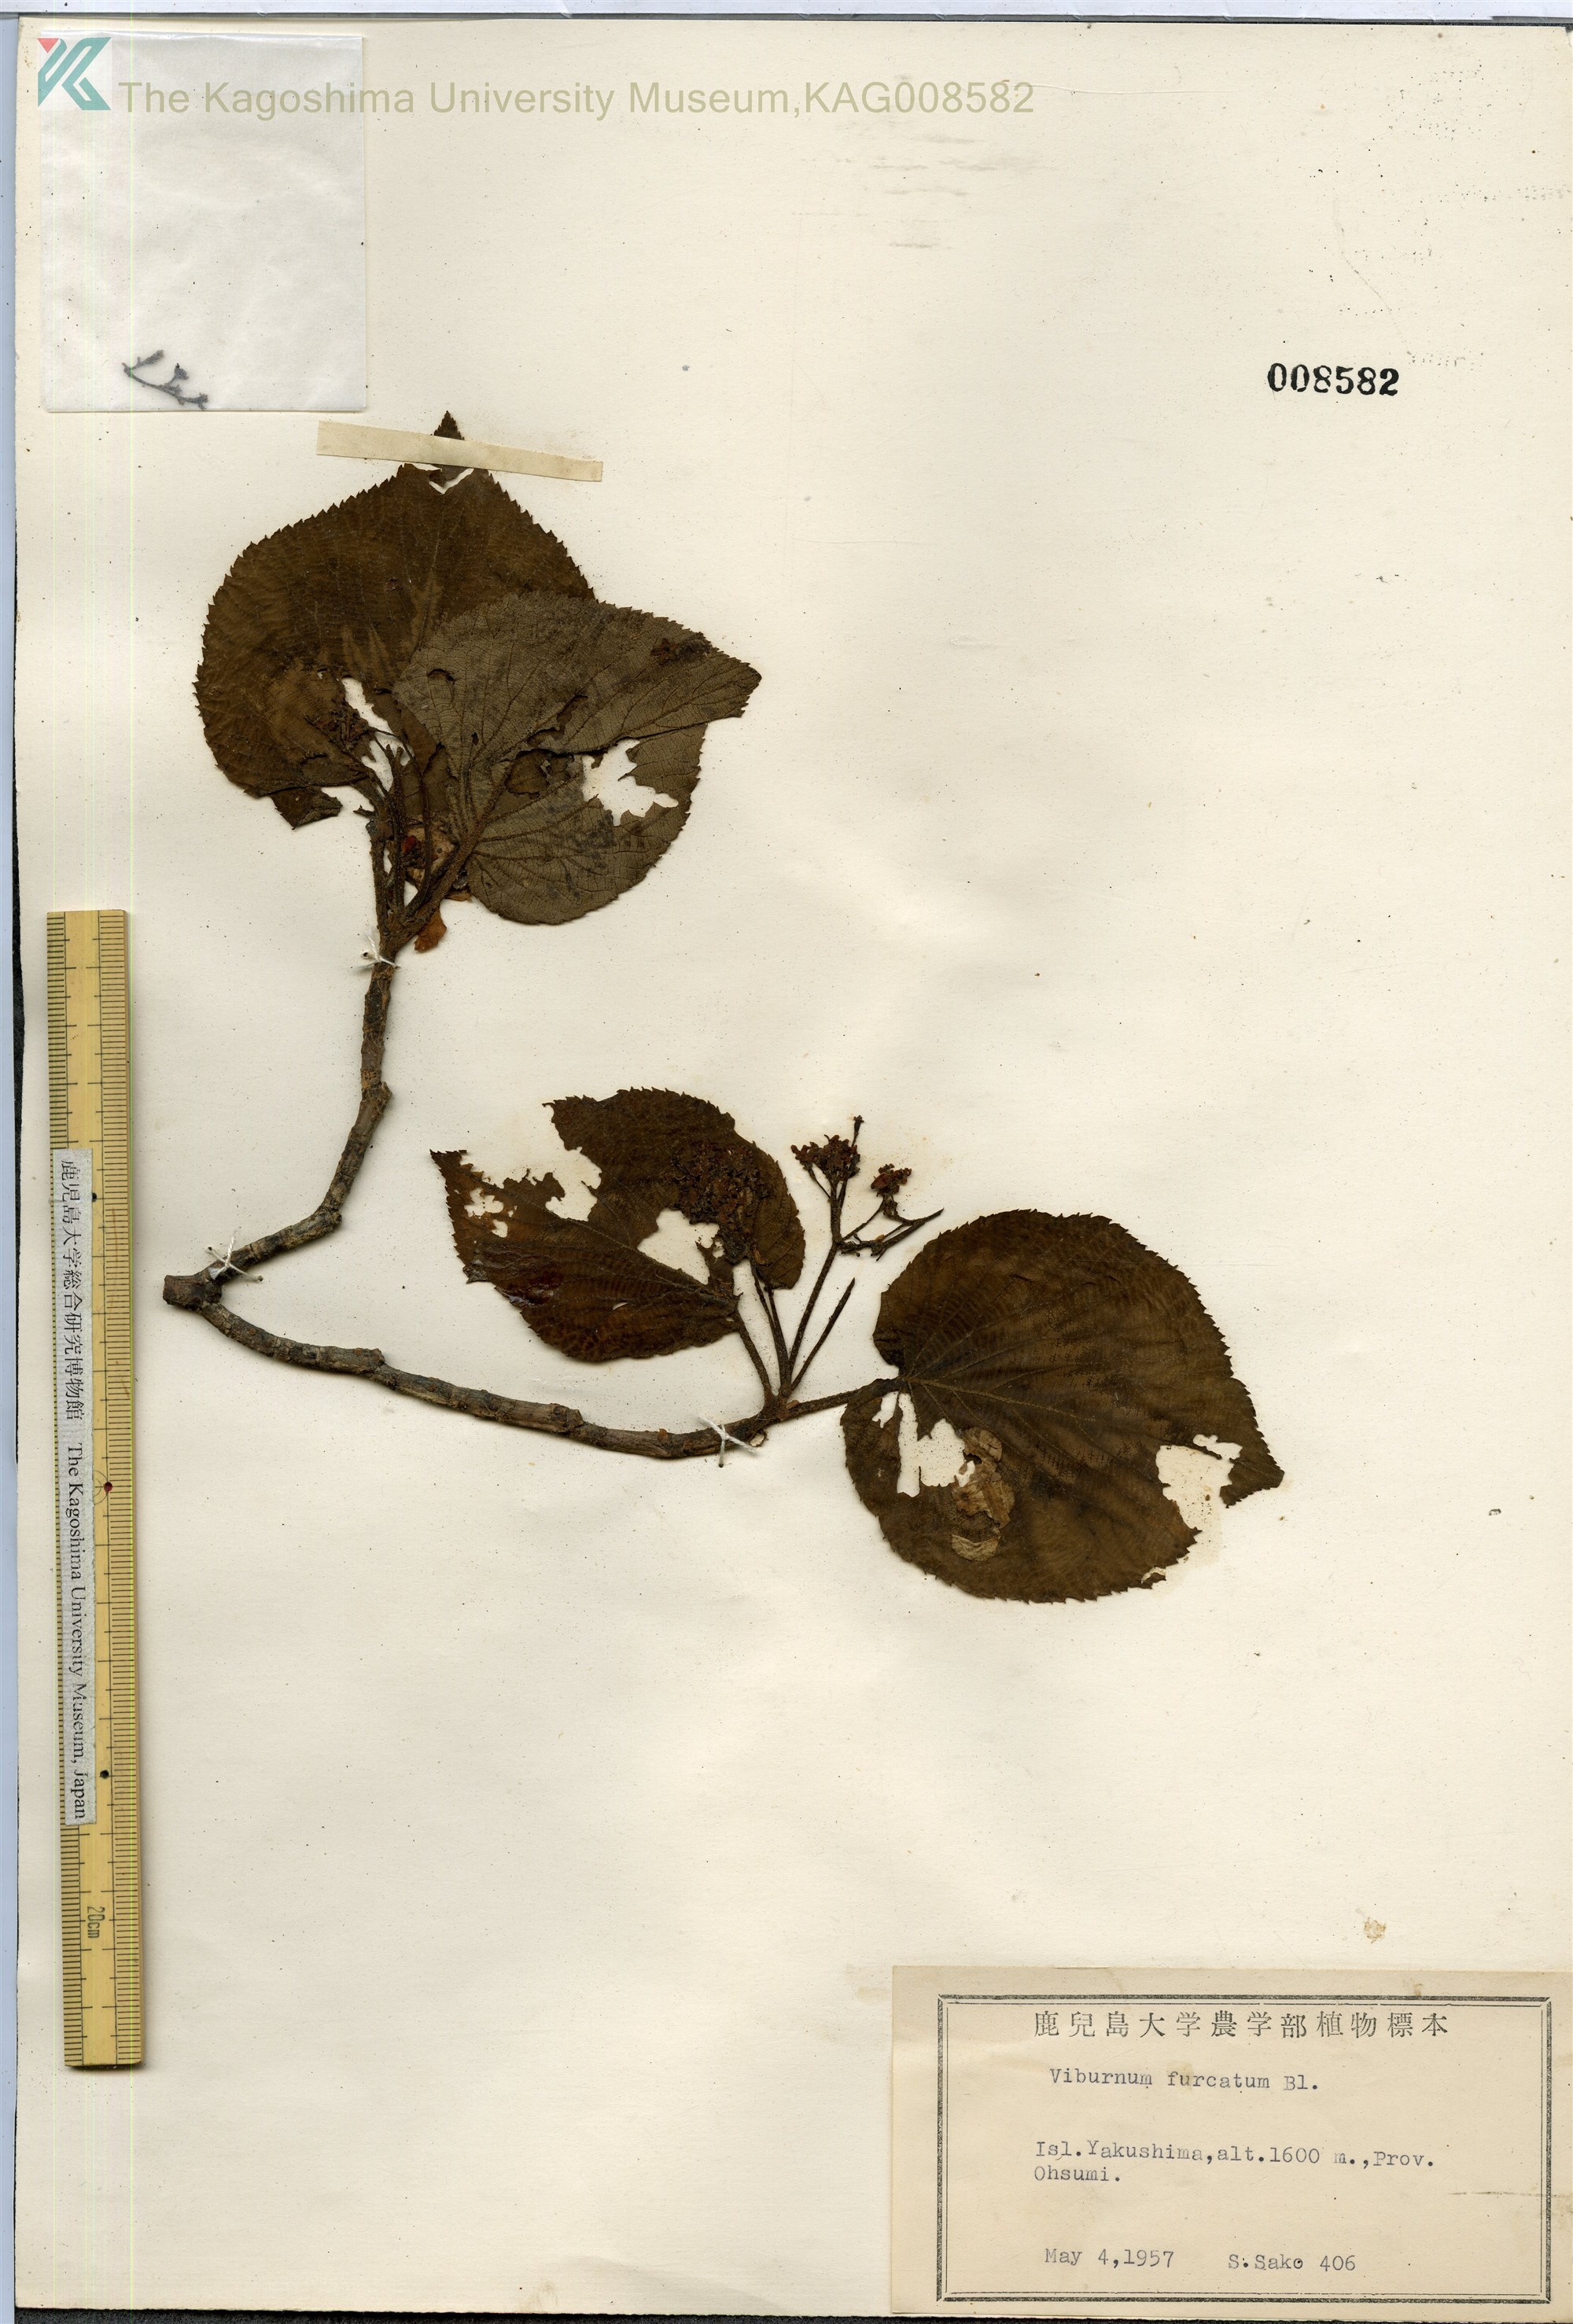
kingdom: Plantae
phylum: Tracheophyta
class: Magnoliopsida
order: Dipsacales
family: Viburnaceae
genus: Viburnum
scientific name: Viburnum furcatum
